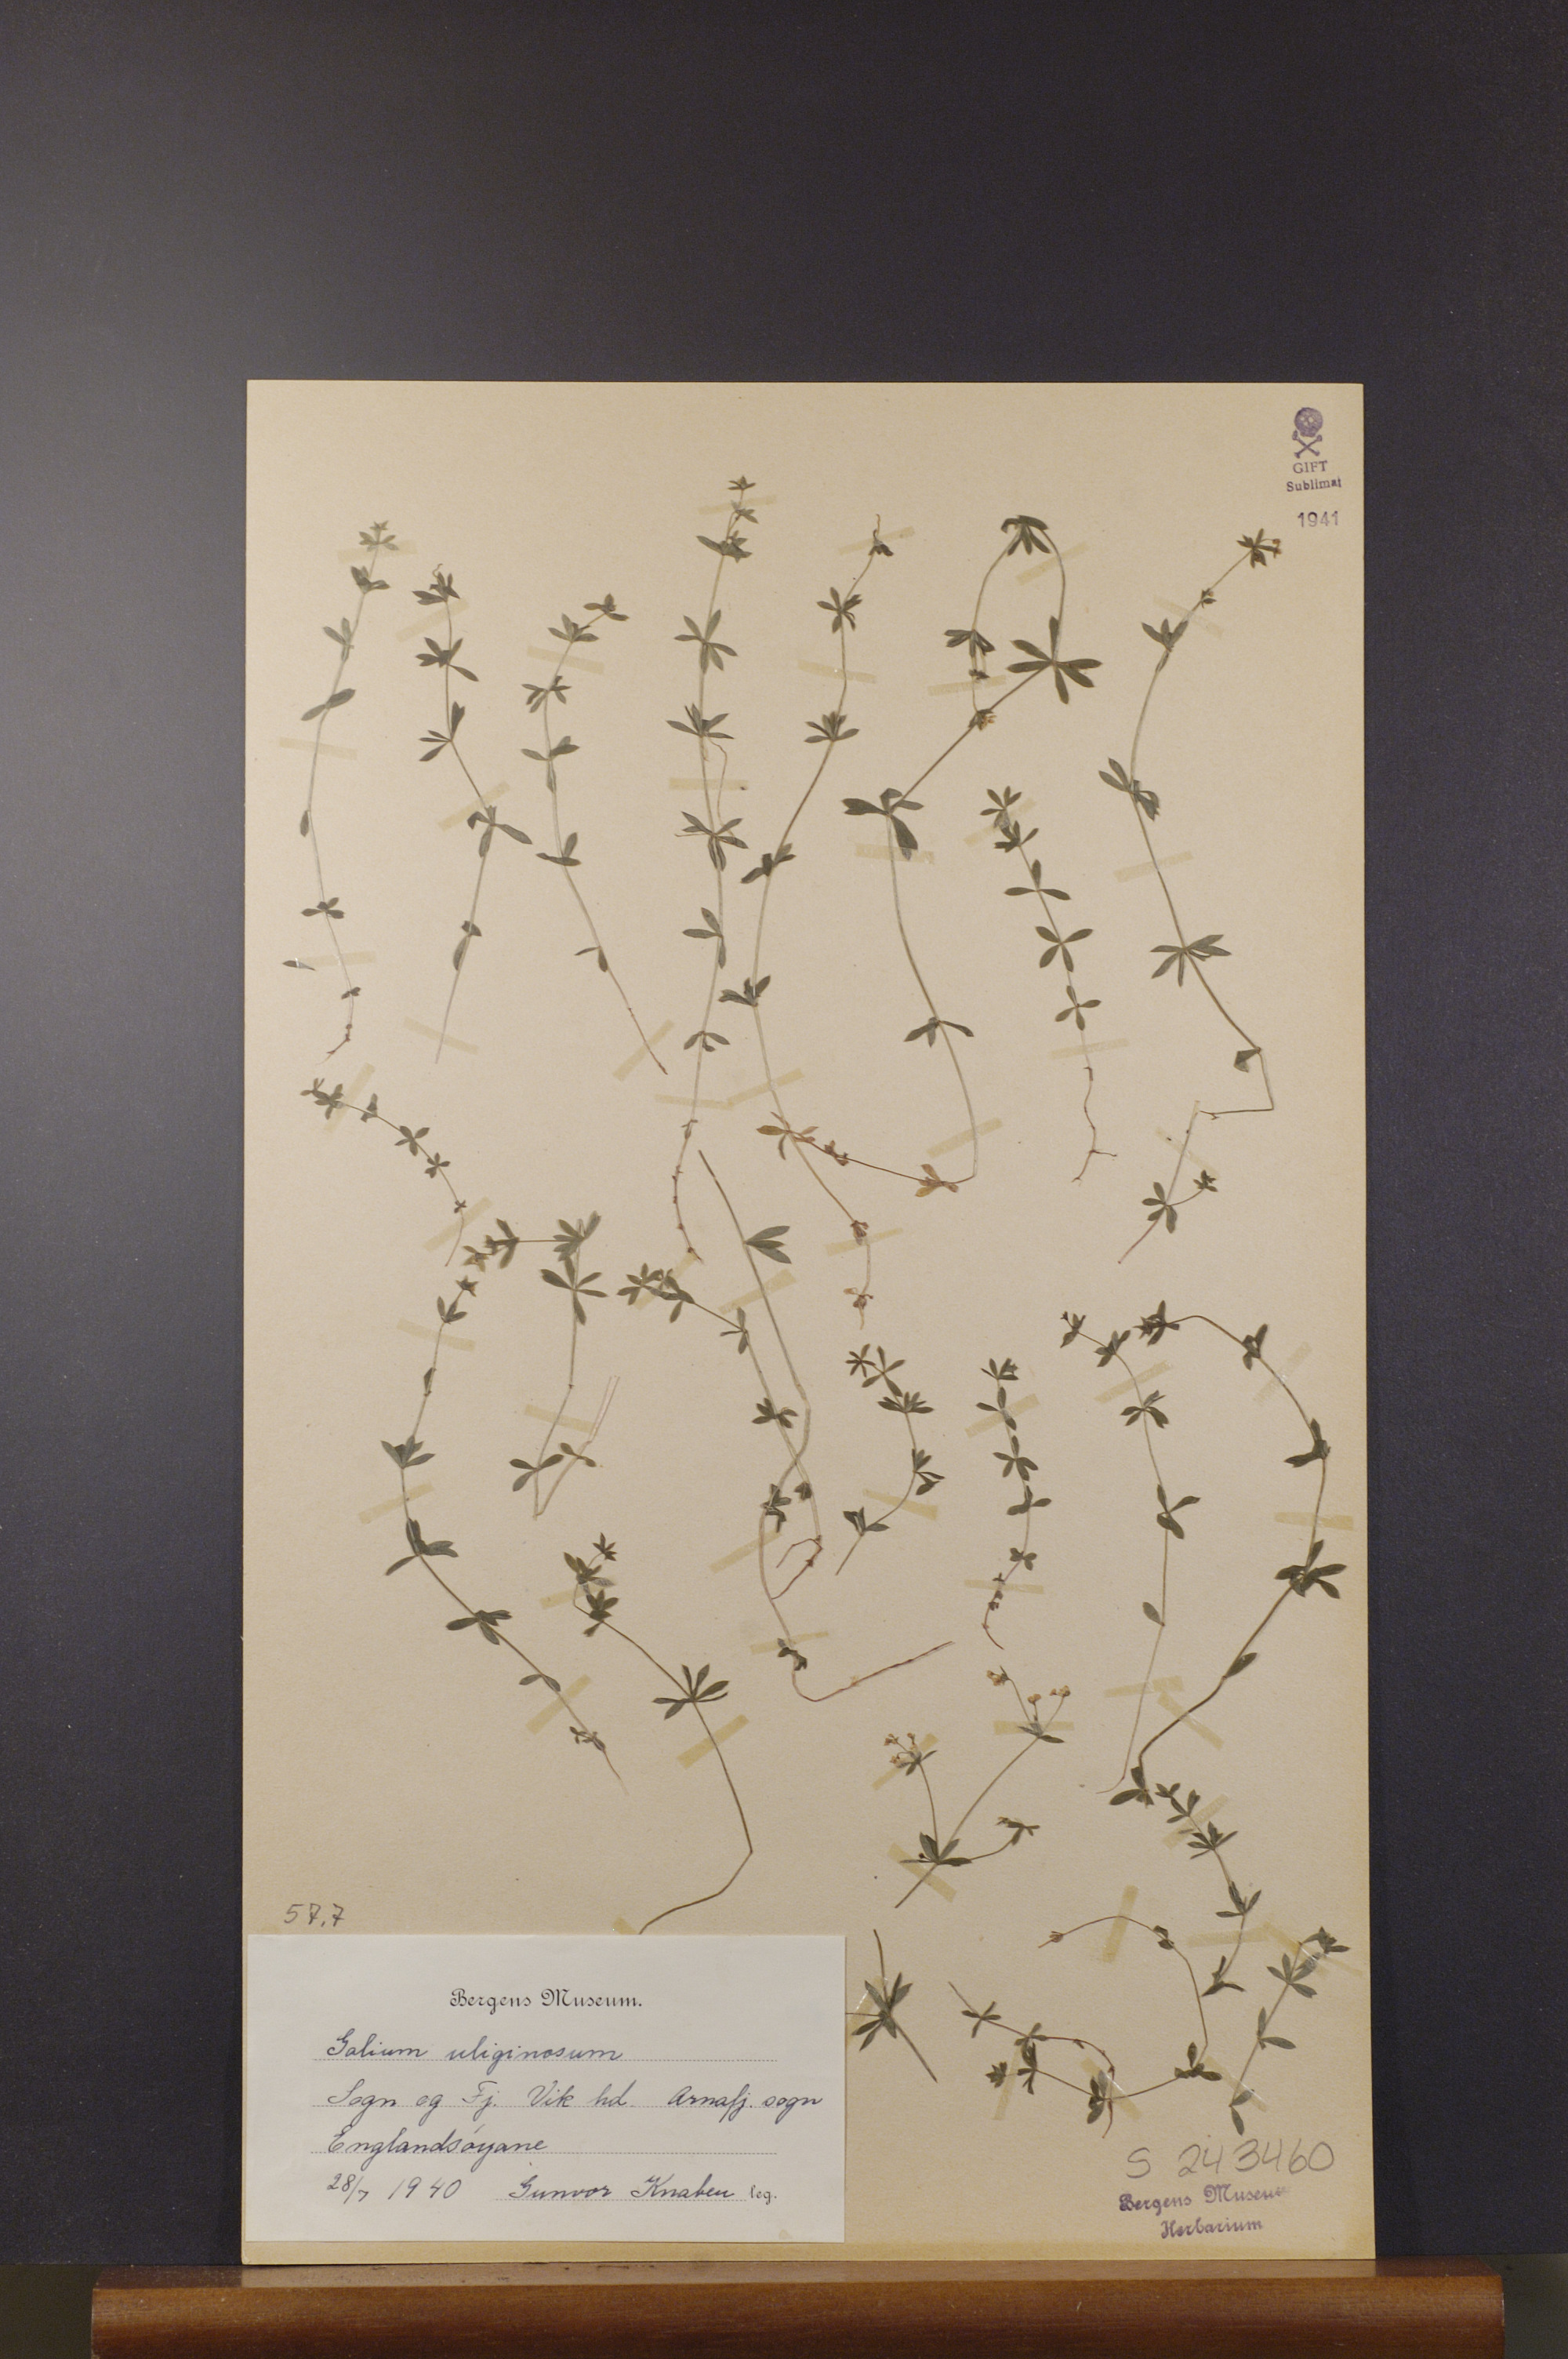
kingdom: Plantae
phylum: Tracheophyta
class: Magnoliopsida
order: Gentianales
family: Rubiaceae
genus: Galium
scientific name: Galium uliginosum
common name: Fen bedstraw
